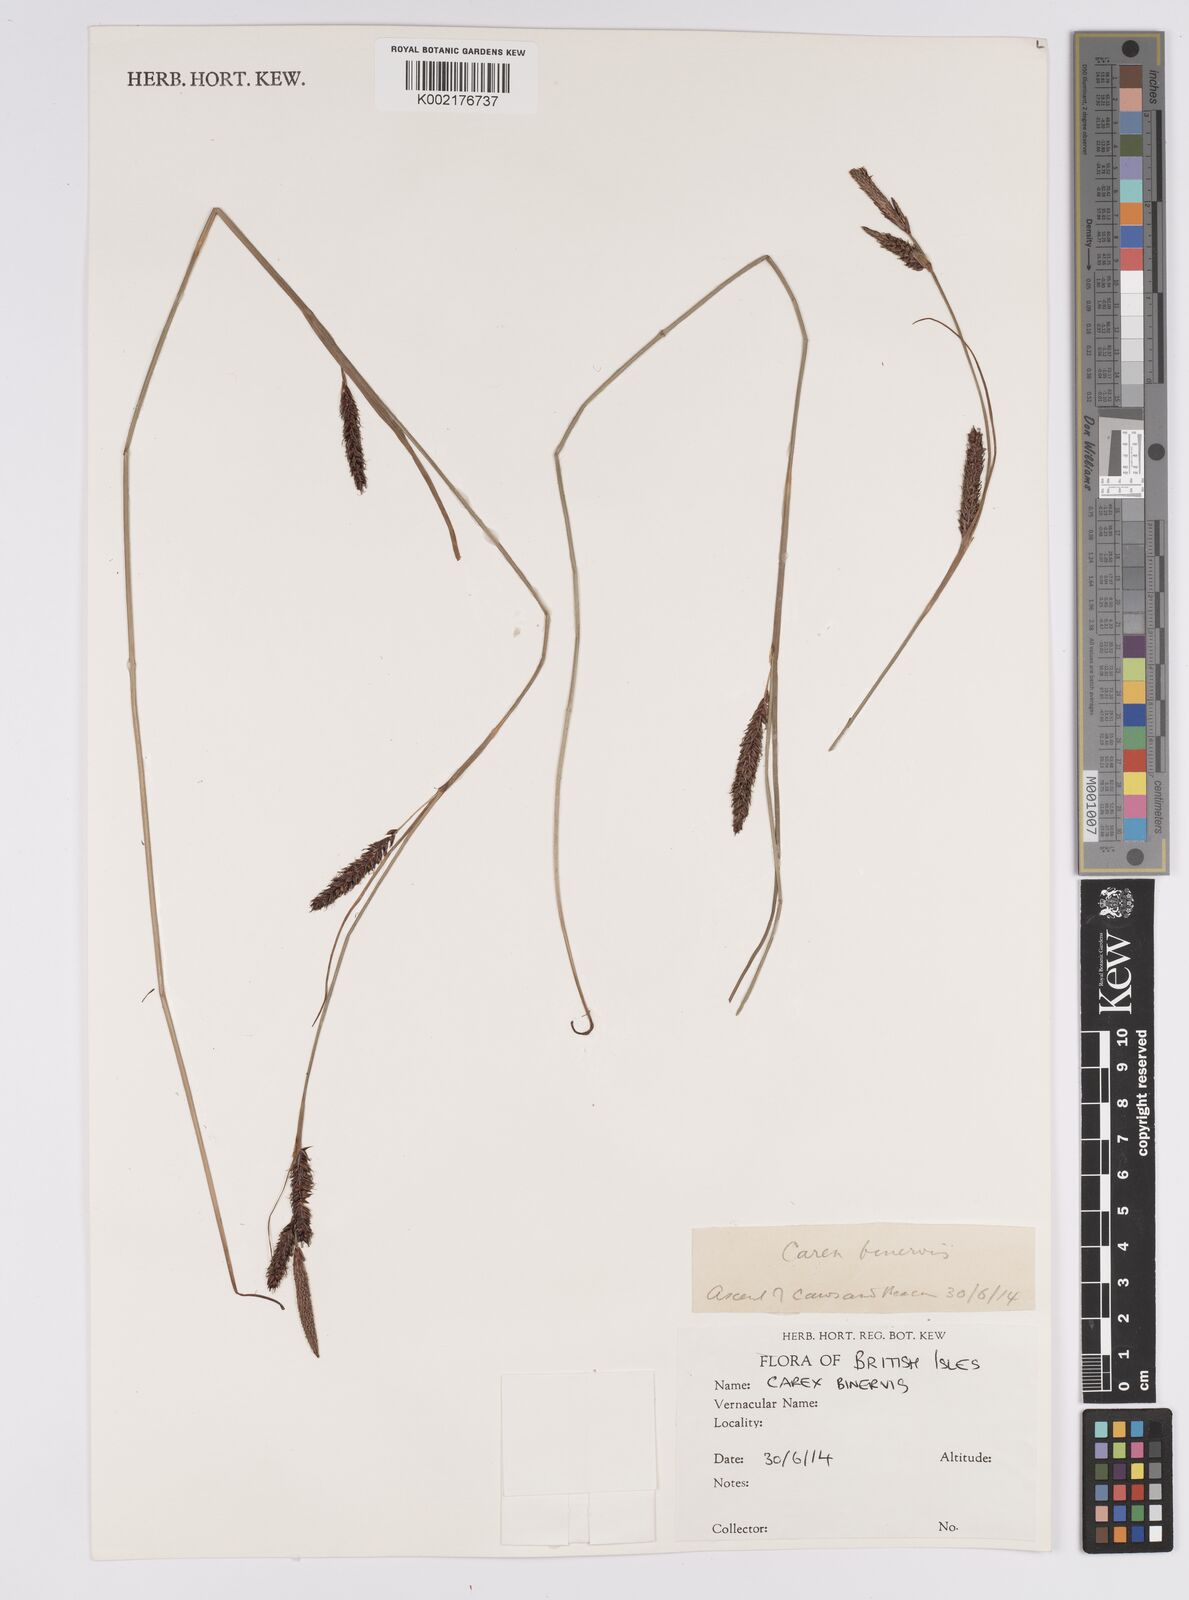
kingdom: Plantae
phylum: Tracheophyta
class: Liliopsida
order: Poales
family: Cyperaceae
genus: Carex
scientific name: Carex binervis
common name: Green-ribbed sedge
